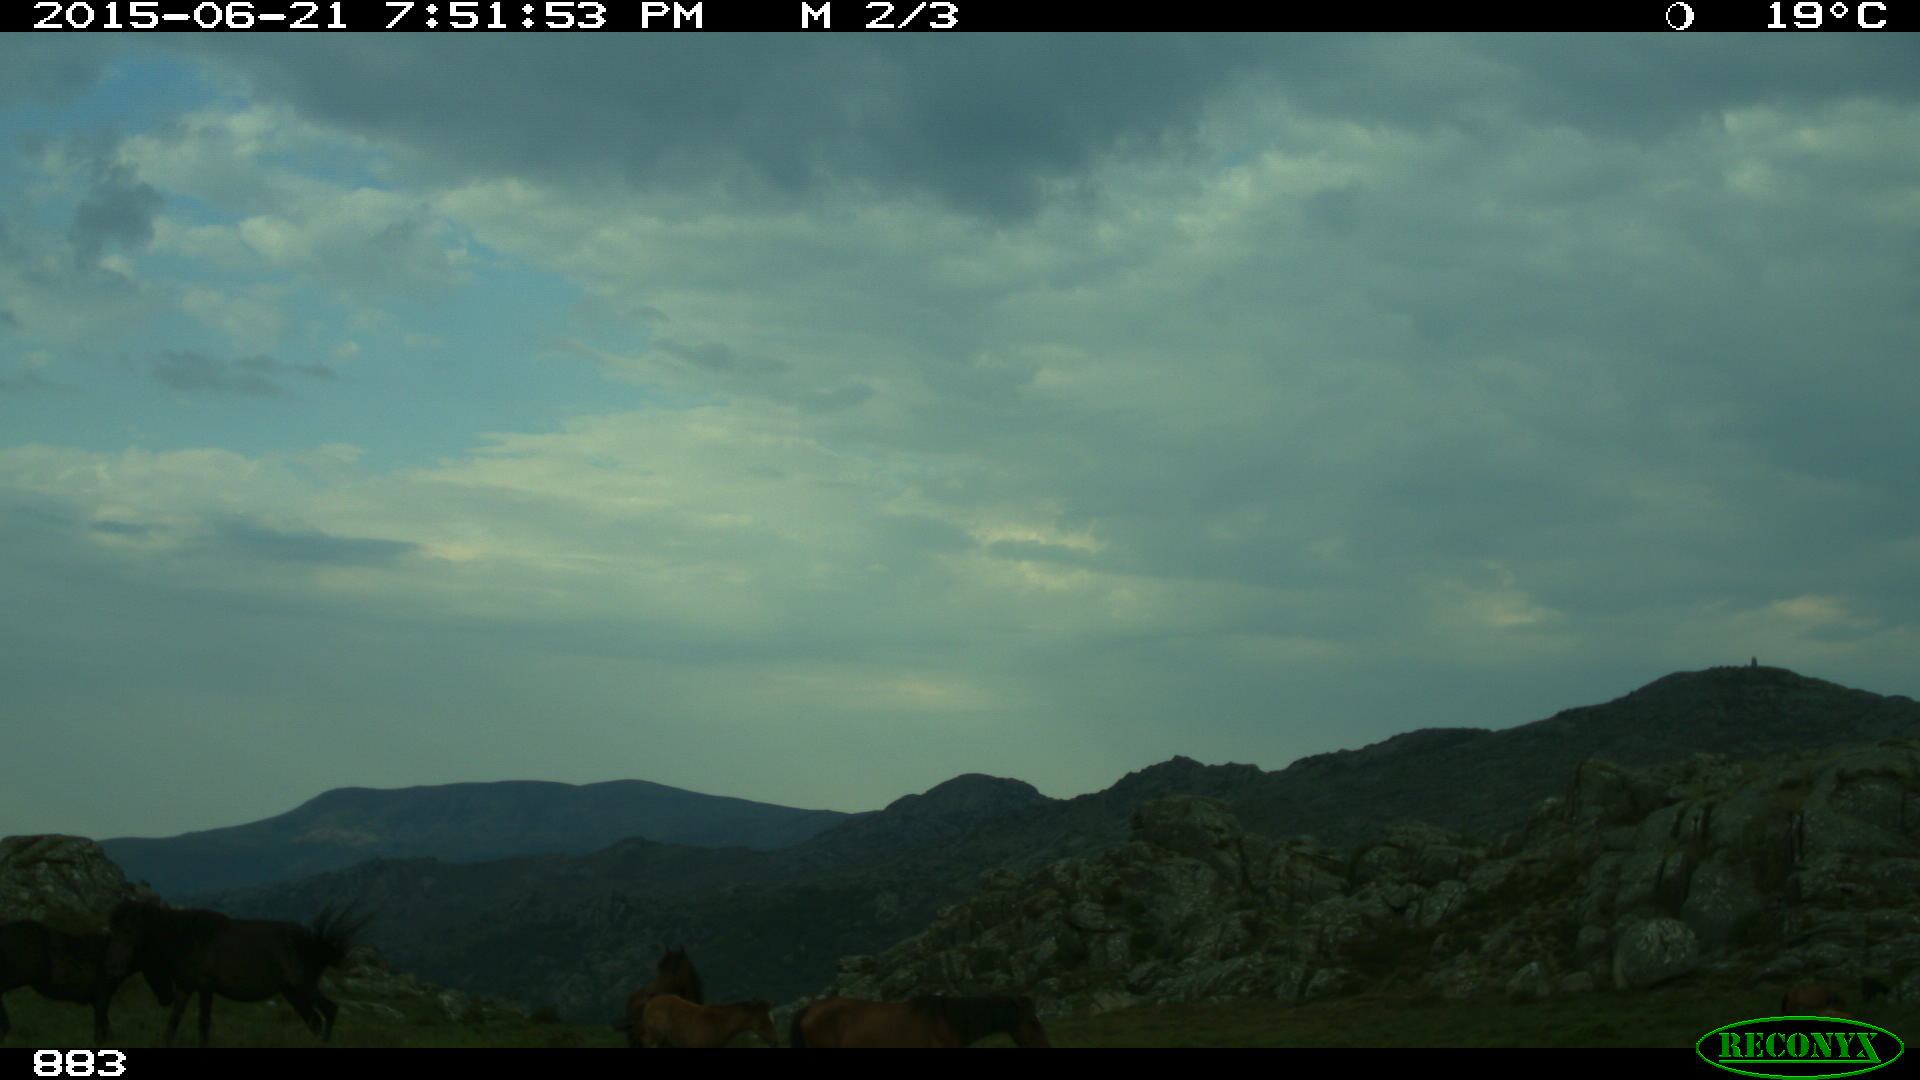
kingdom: Animalia
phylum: Chordata
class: Mammalia
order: Perissodactyla
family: Equidae
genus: Equus
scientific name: Equus caballus
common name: Horse
